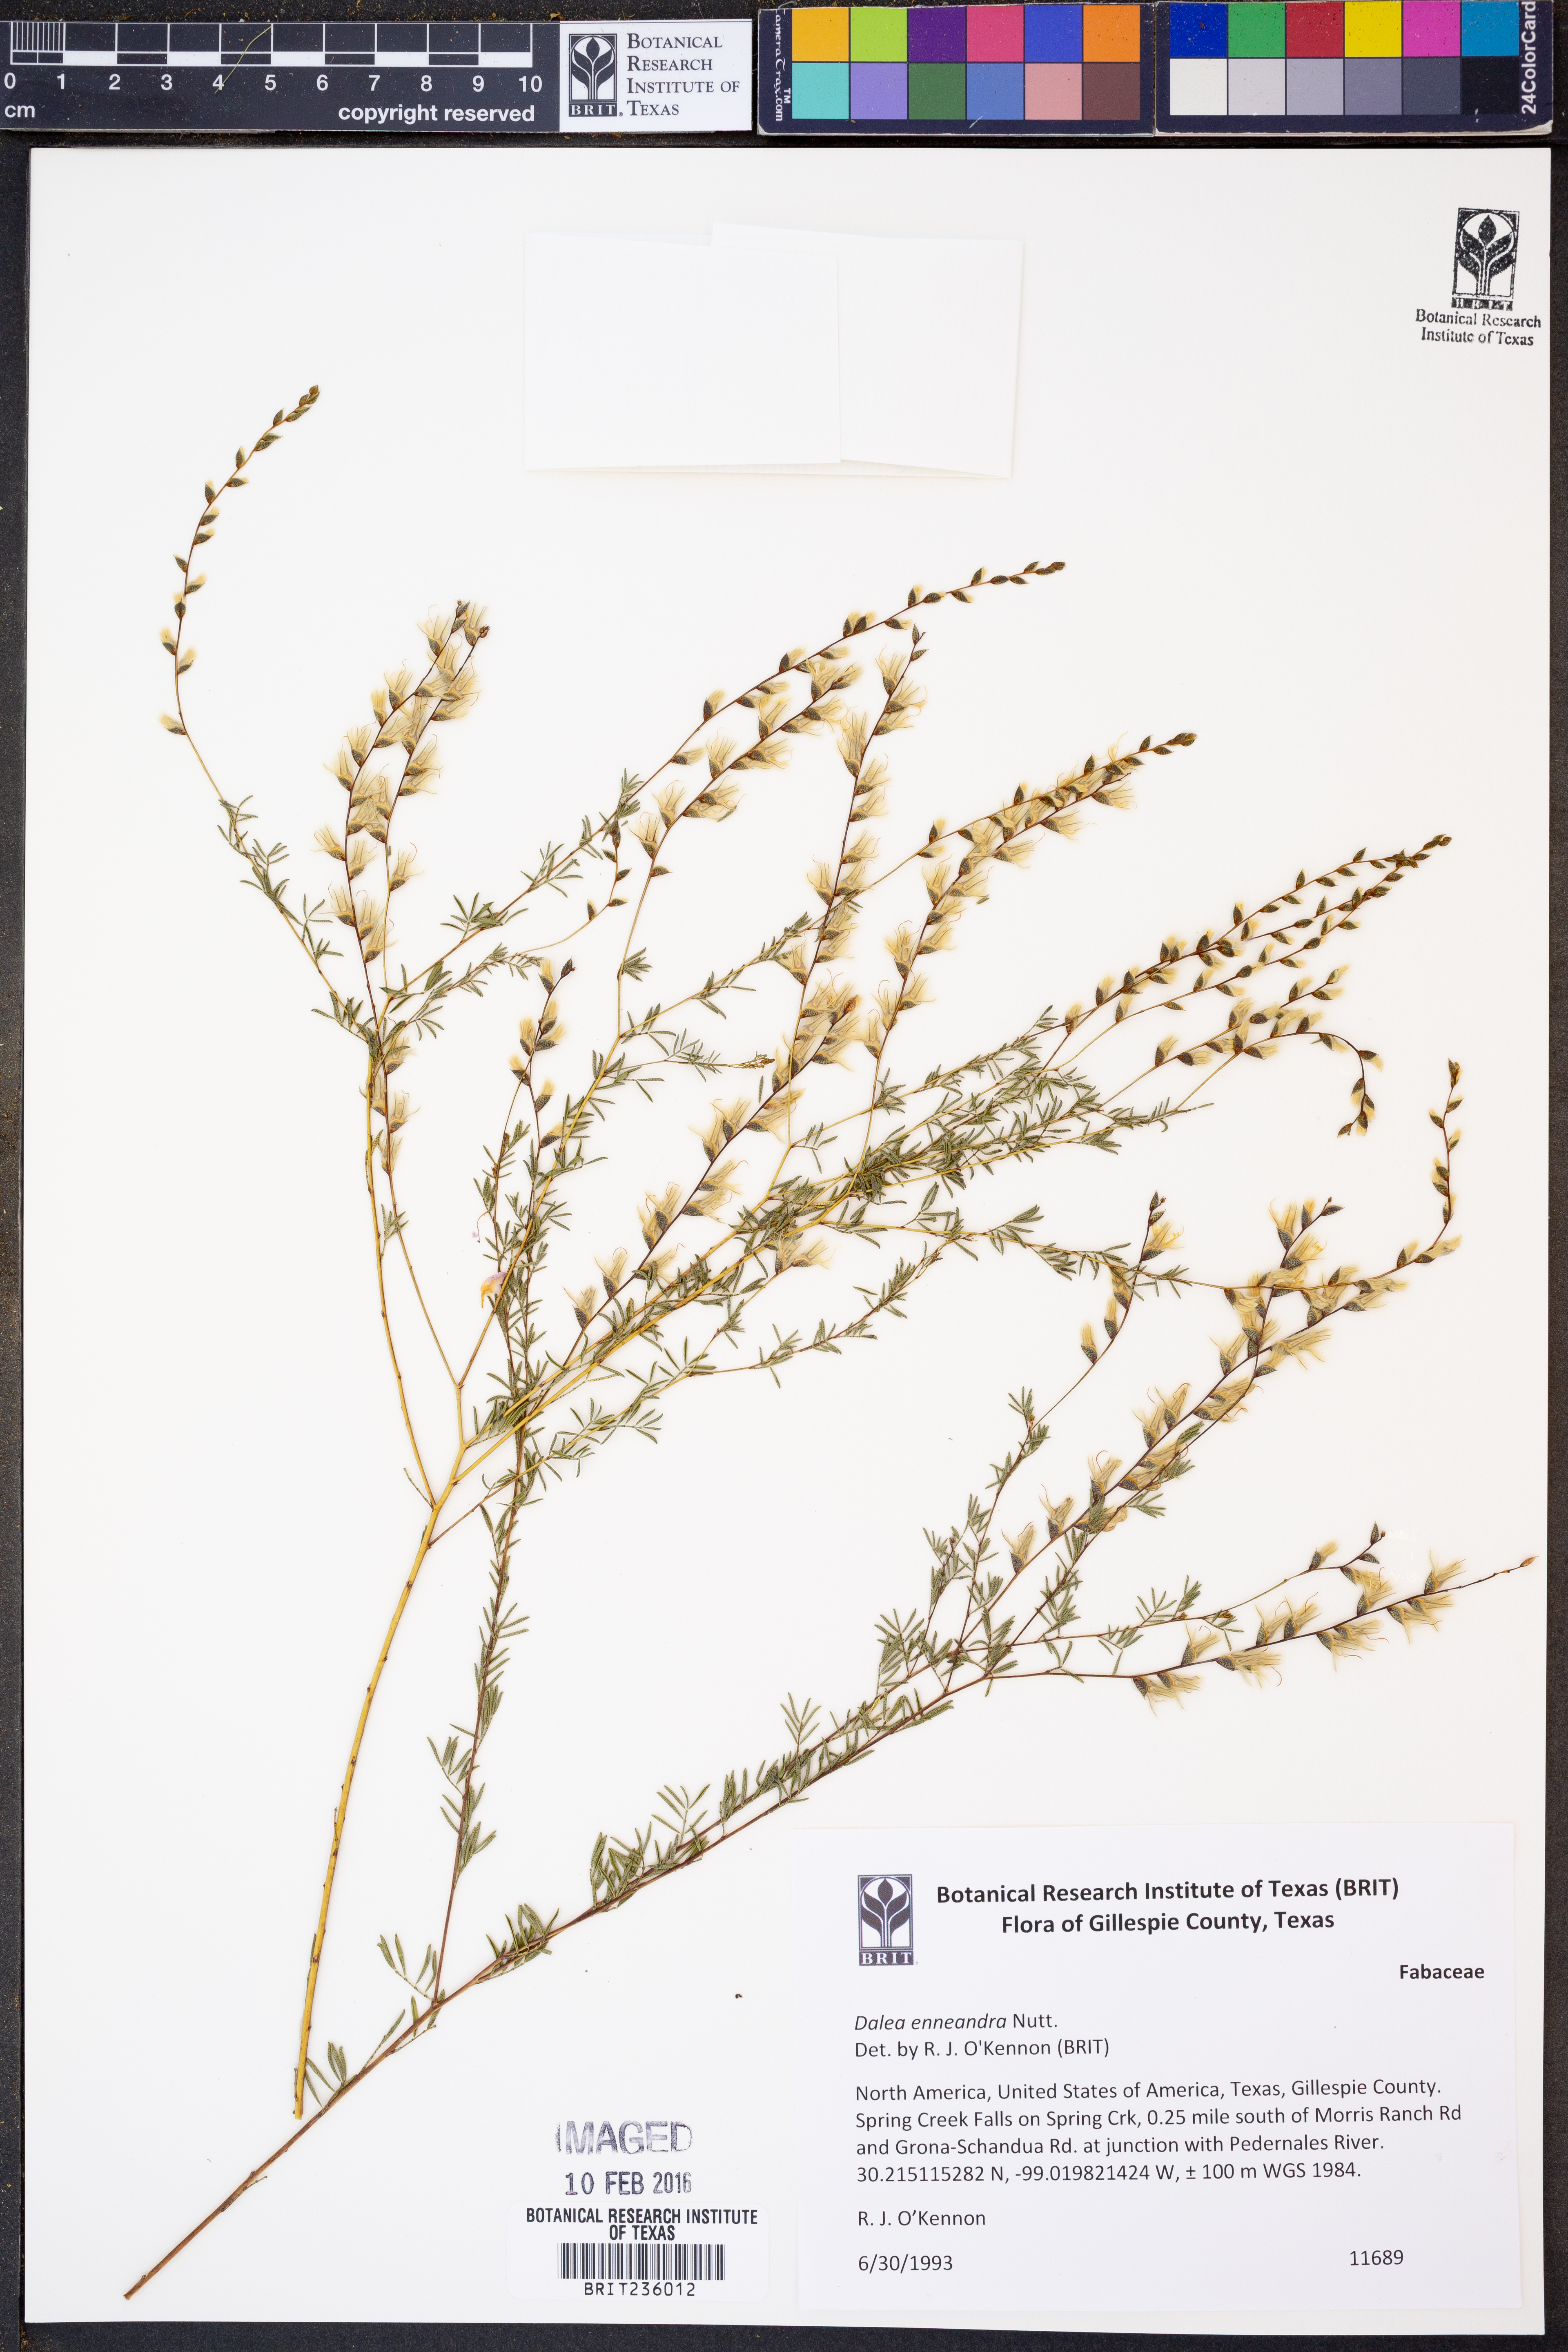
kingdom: Plantae
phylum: Tracheophyta
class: Magnoliopsida
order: Fabales
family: Fabaceae
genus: Dalea
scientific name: Dalea enneandra
